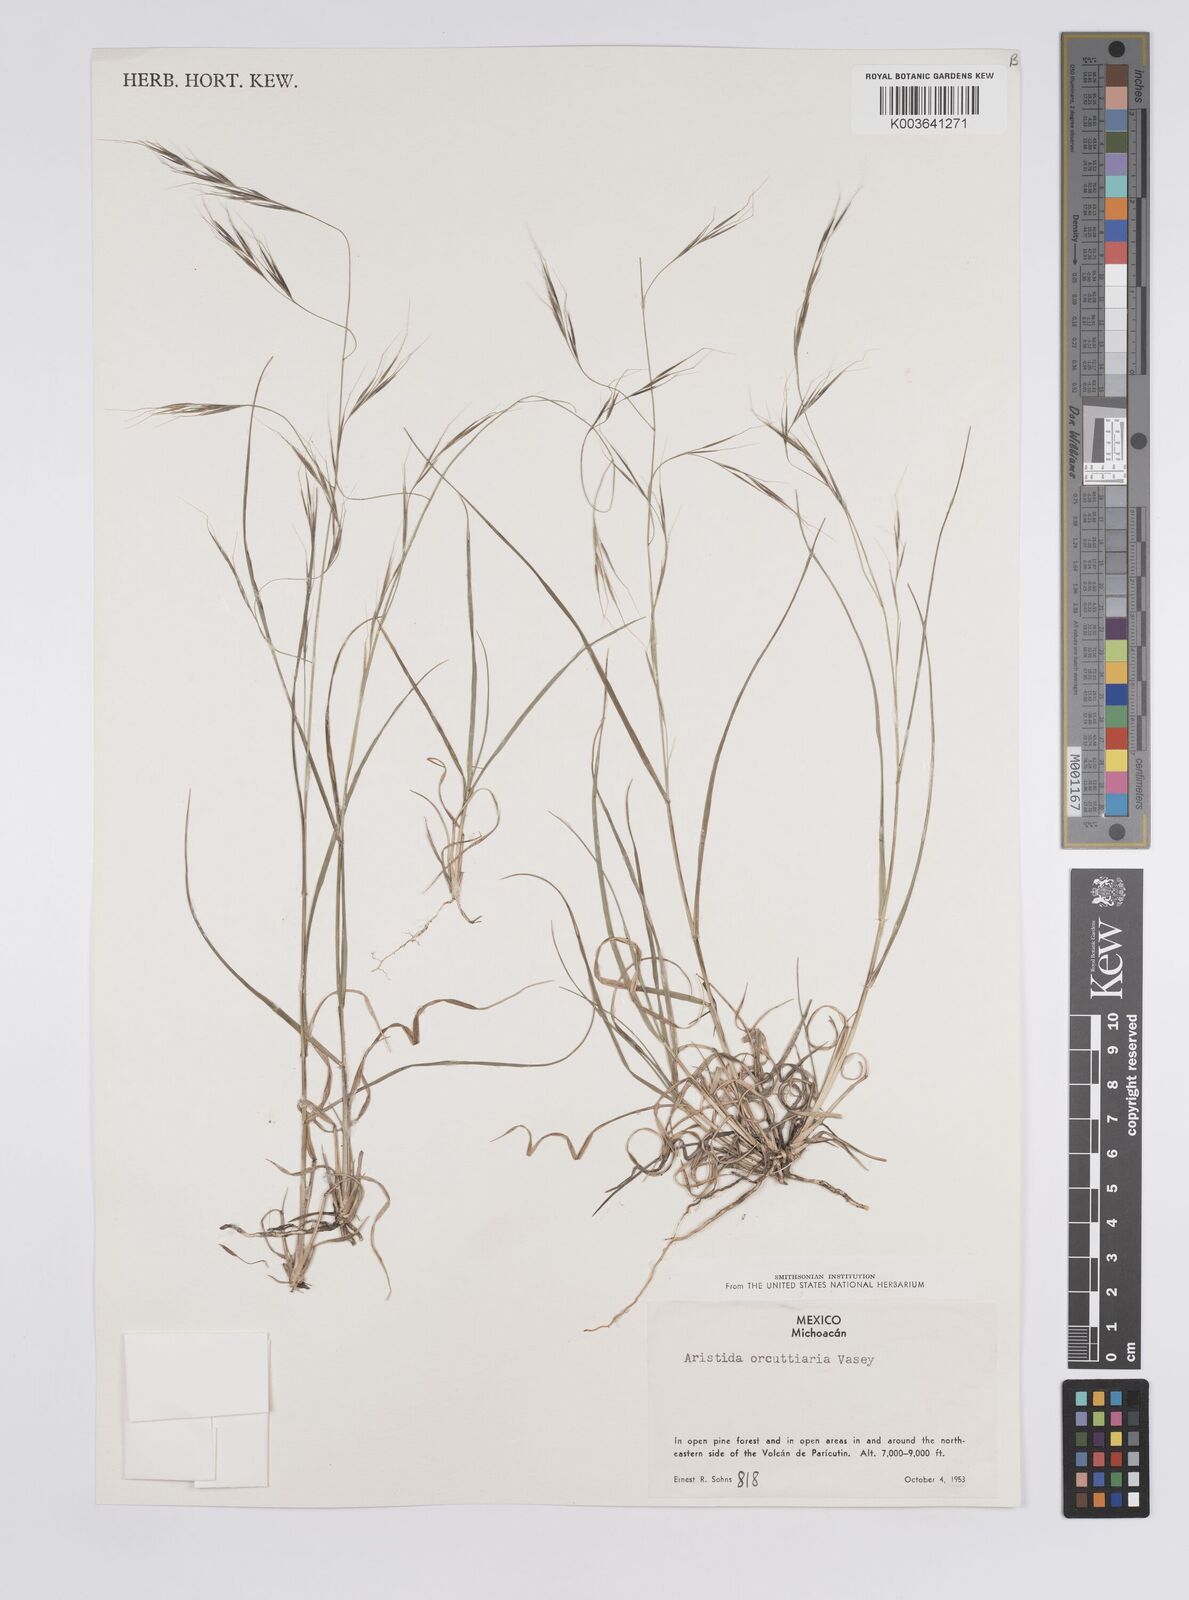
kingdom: Plantae
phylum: Tracheophyta
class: Liliopsida
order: Poales
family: Poaceae
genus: Aristida
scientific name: Aristida schiedeana
